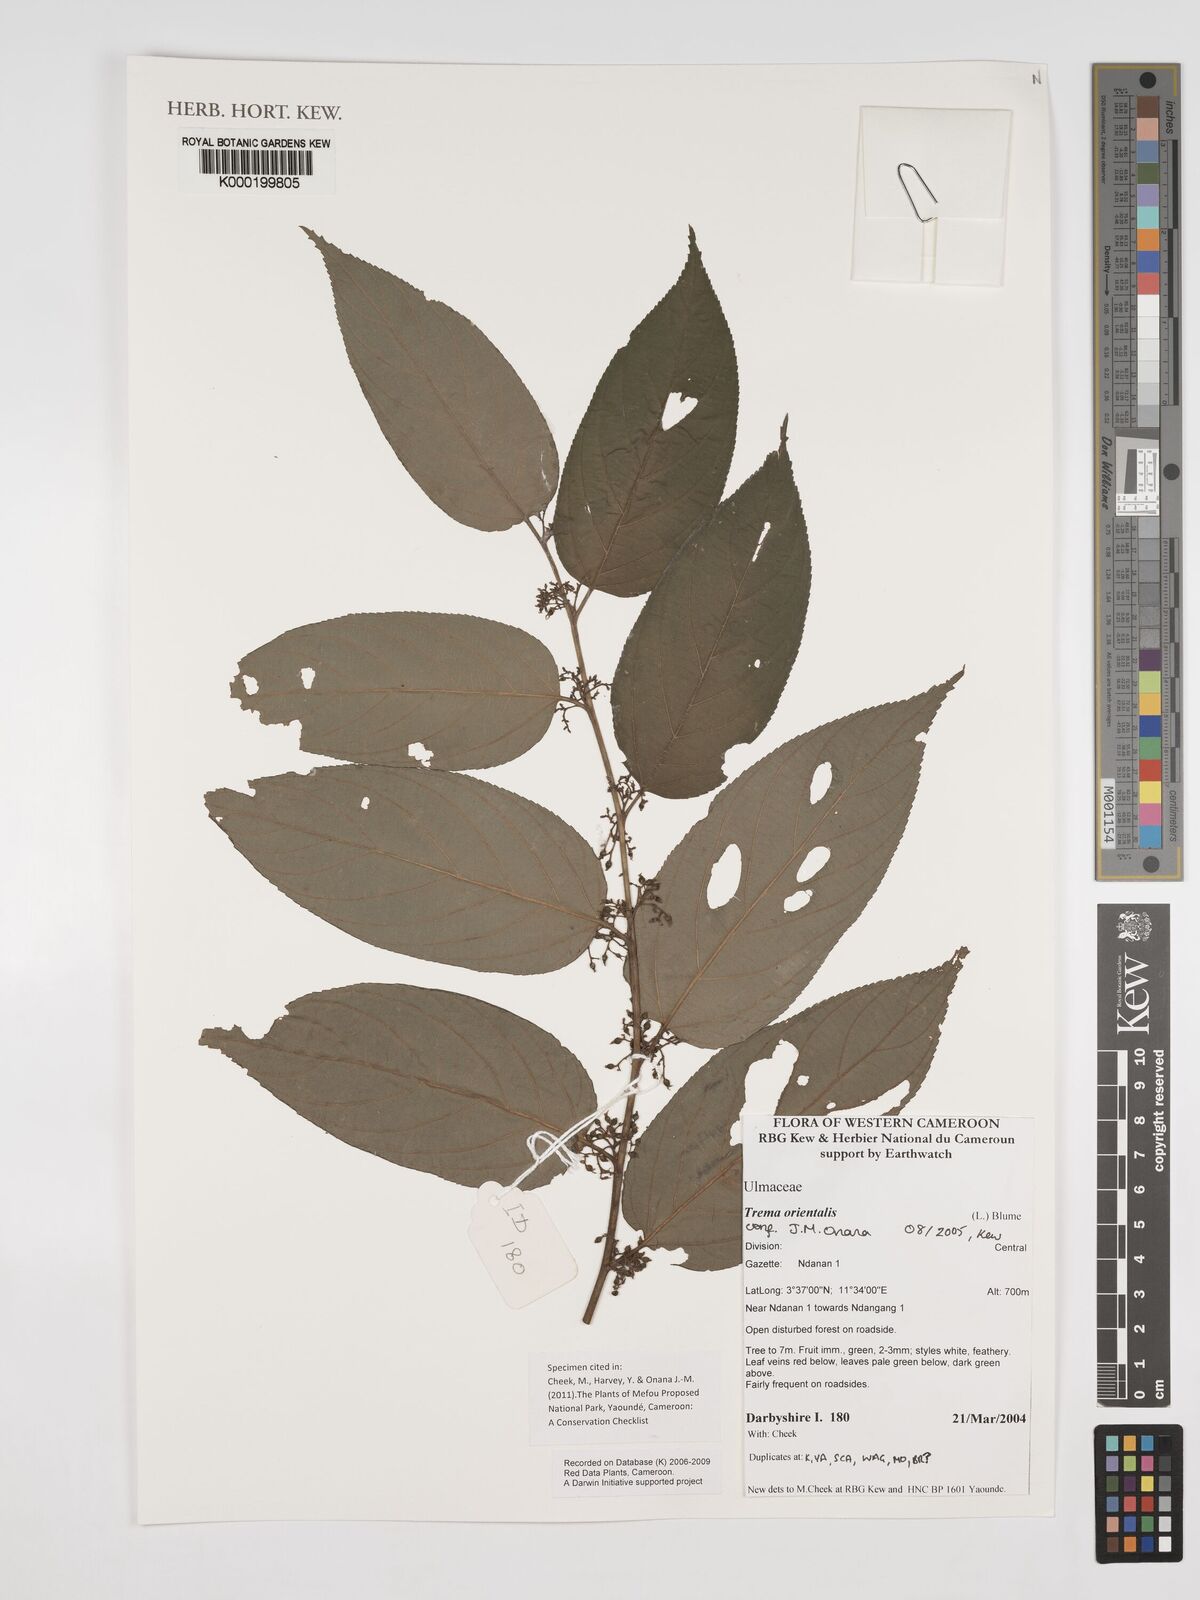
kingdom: Plantae
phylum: Tracheophyta
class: Magnoliopsida
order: Rosales
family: Cannabaceae
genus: Trema
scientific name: Trema
